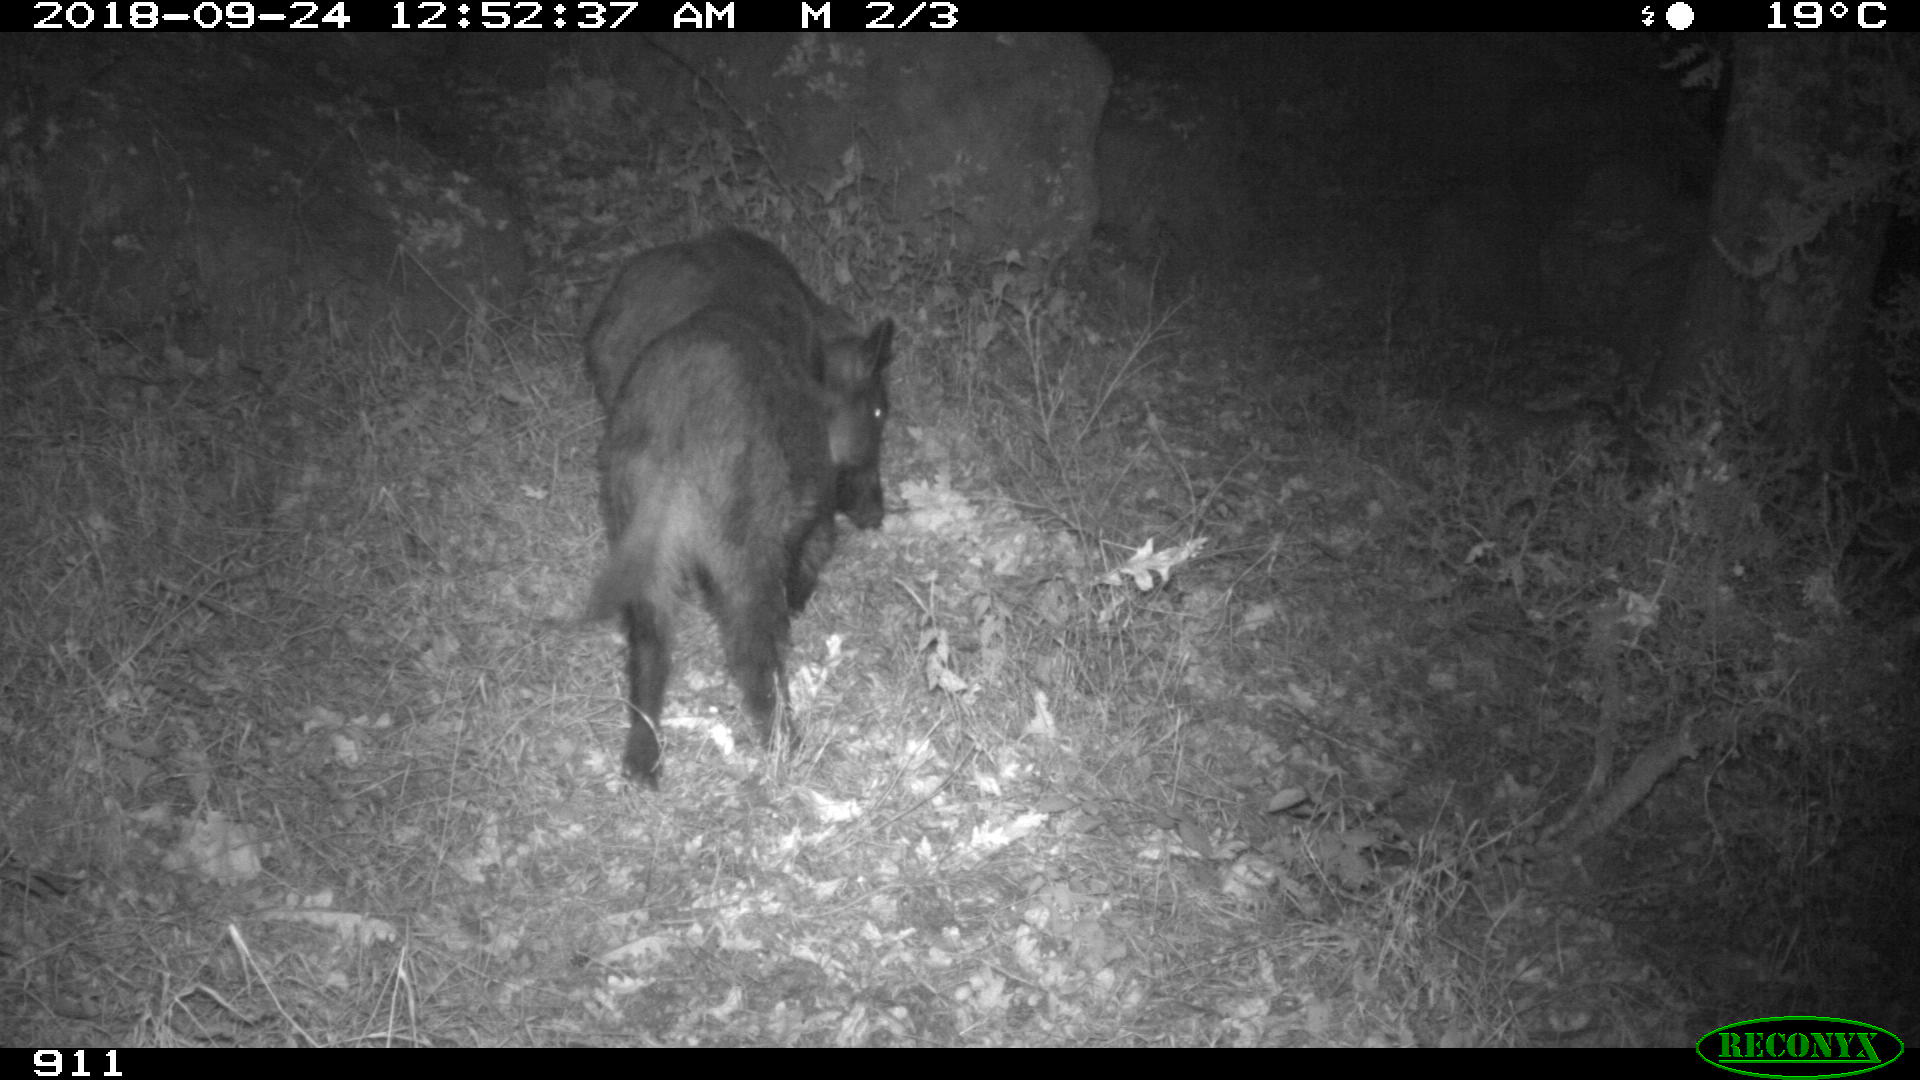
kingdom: Animalia
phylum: Chordata
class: Mammalia
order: Artiodactyla
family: Suidae
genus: Sus
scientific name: Sus scrofa
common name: Wild boar
